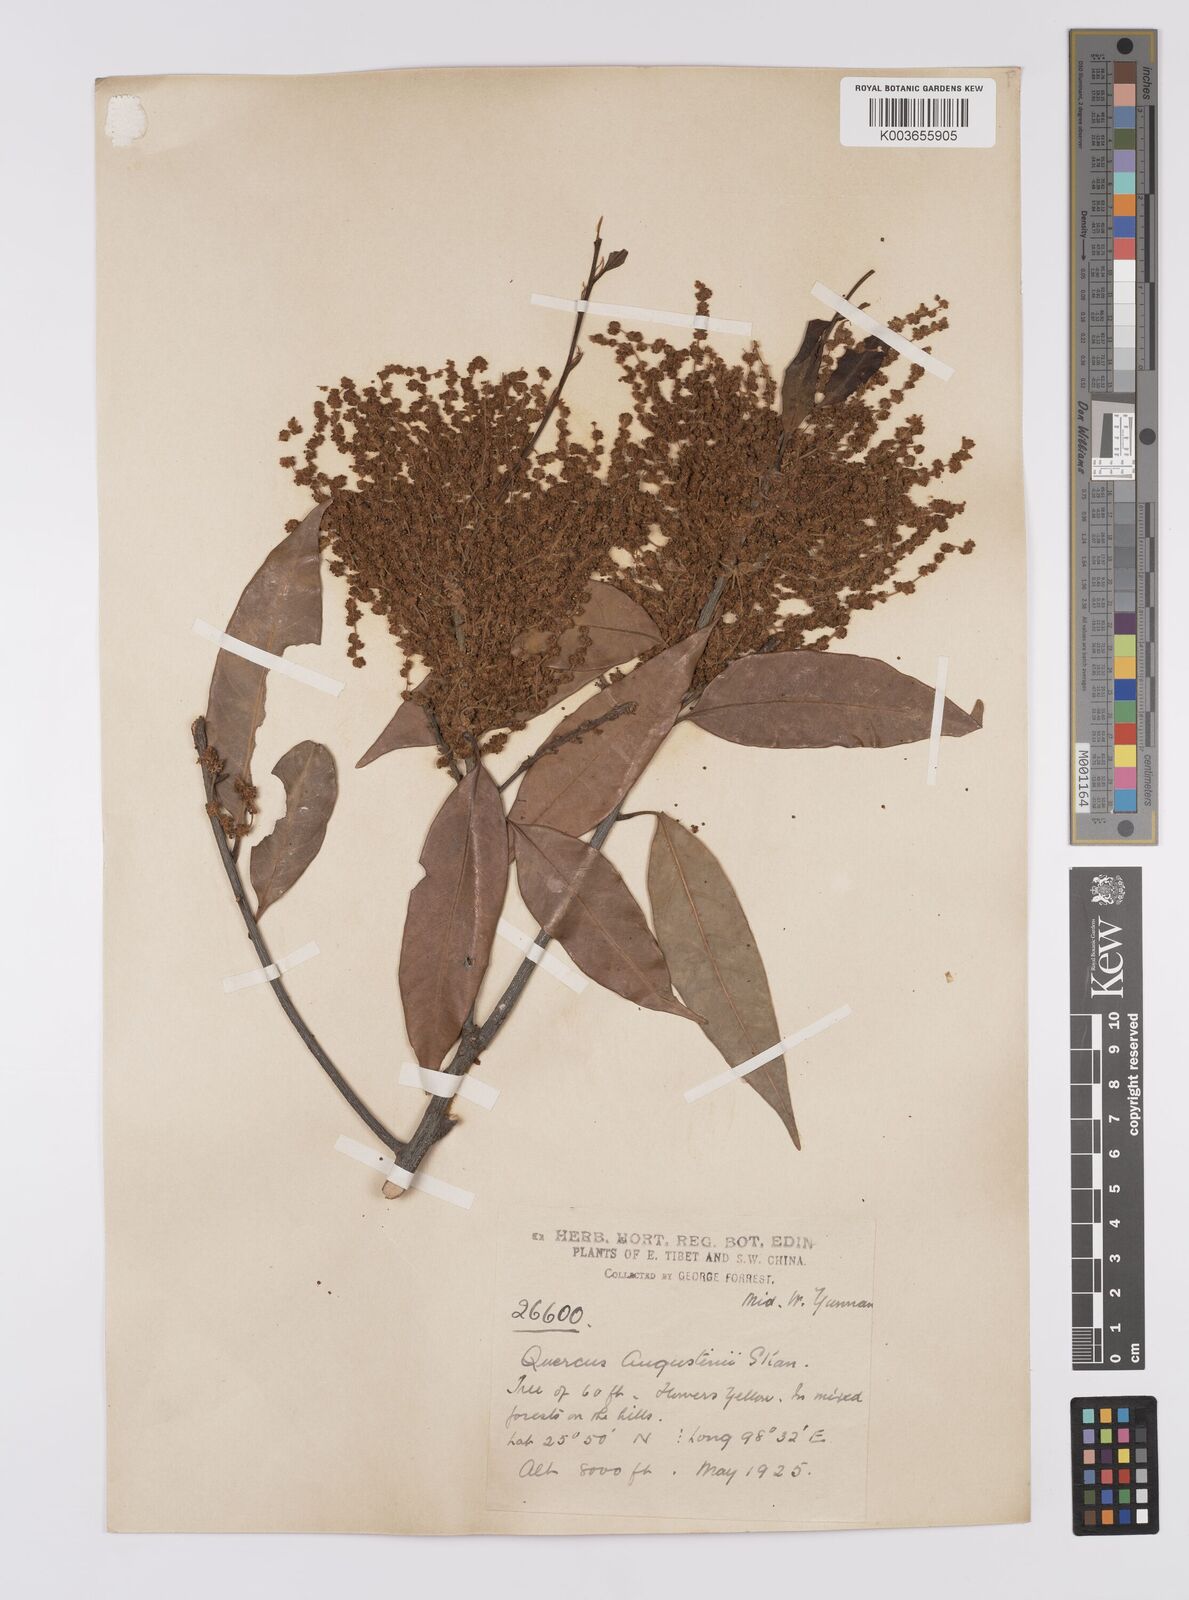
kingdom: Plantae
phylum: Tracheophyta
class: Magnoliopsida
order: Fagales
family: Fagaceae
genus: Quercus
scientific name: Quercus augustini
